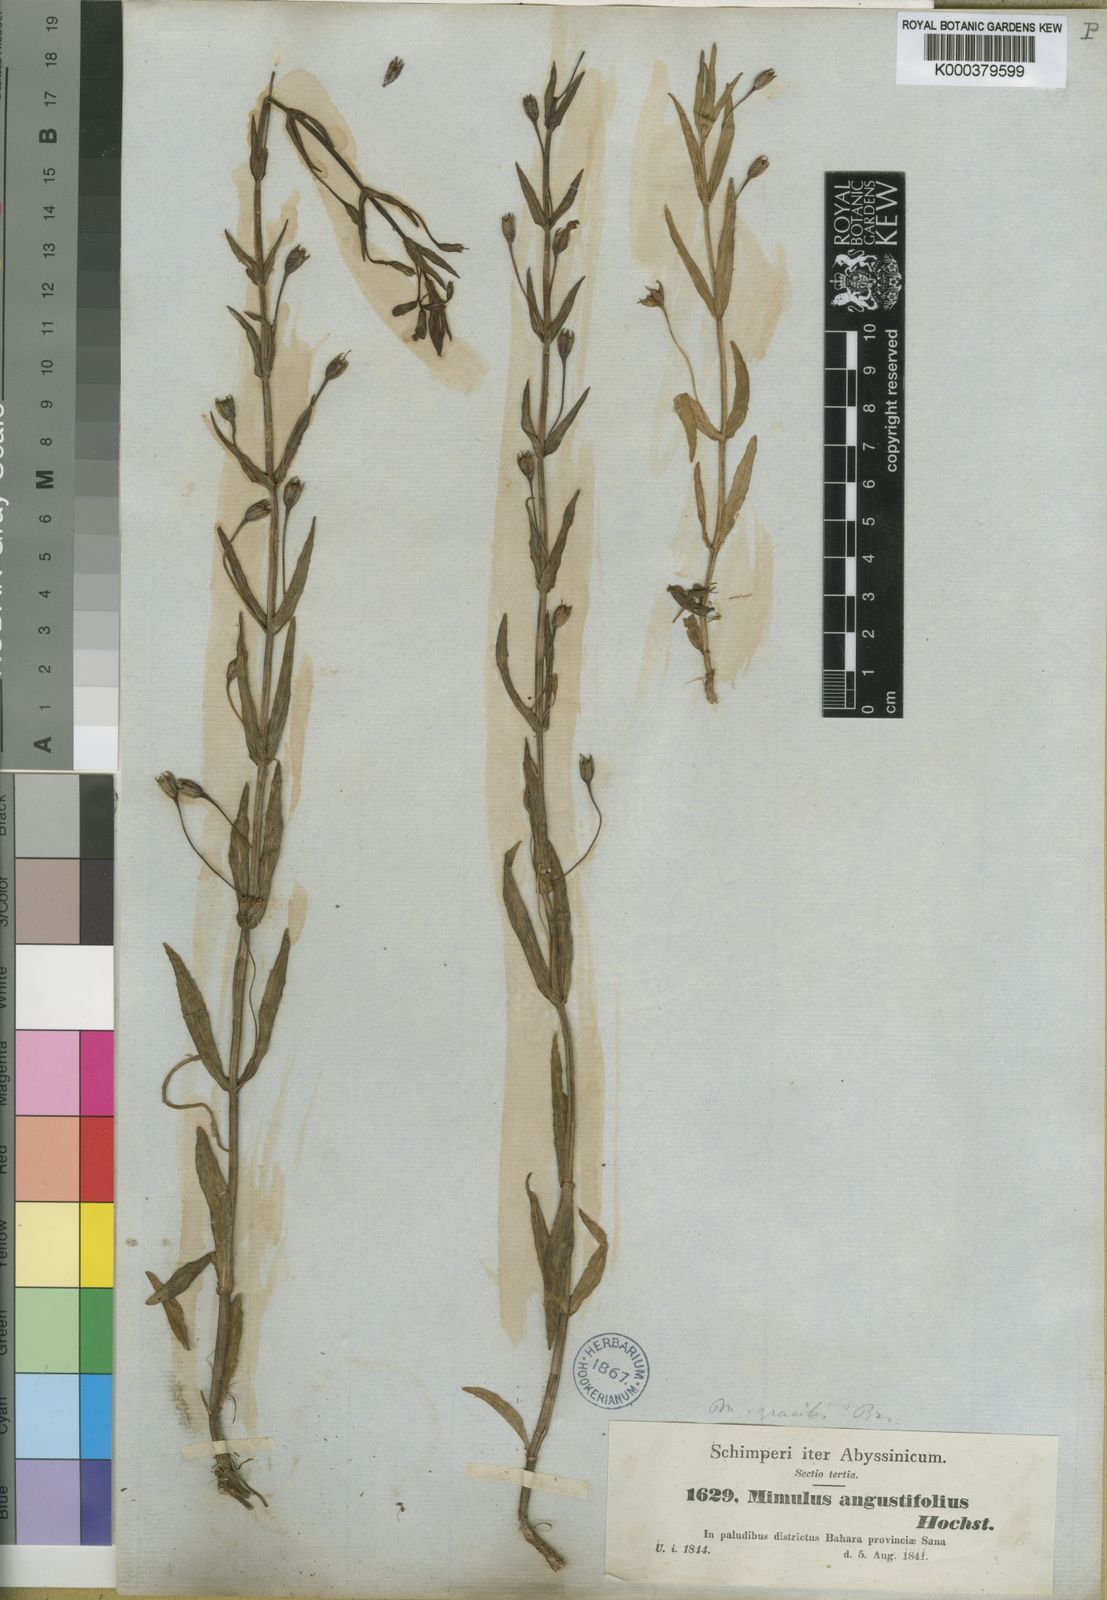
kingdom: Plantae
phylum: Tracheophyta
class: Magnoliopsida
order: Lamiales
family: Phrymaceae
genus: Mimulus
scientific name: Mimulus gracilis
